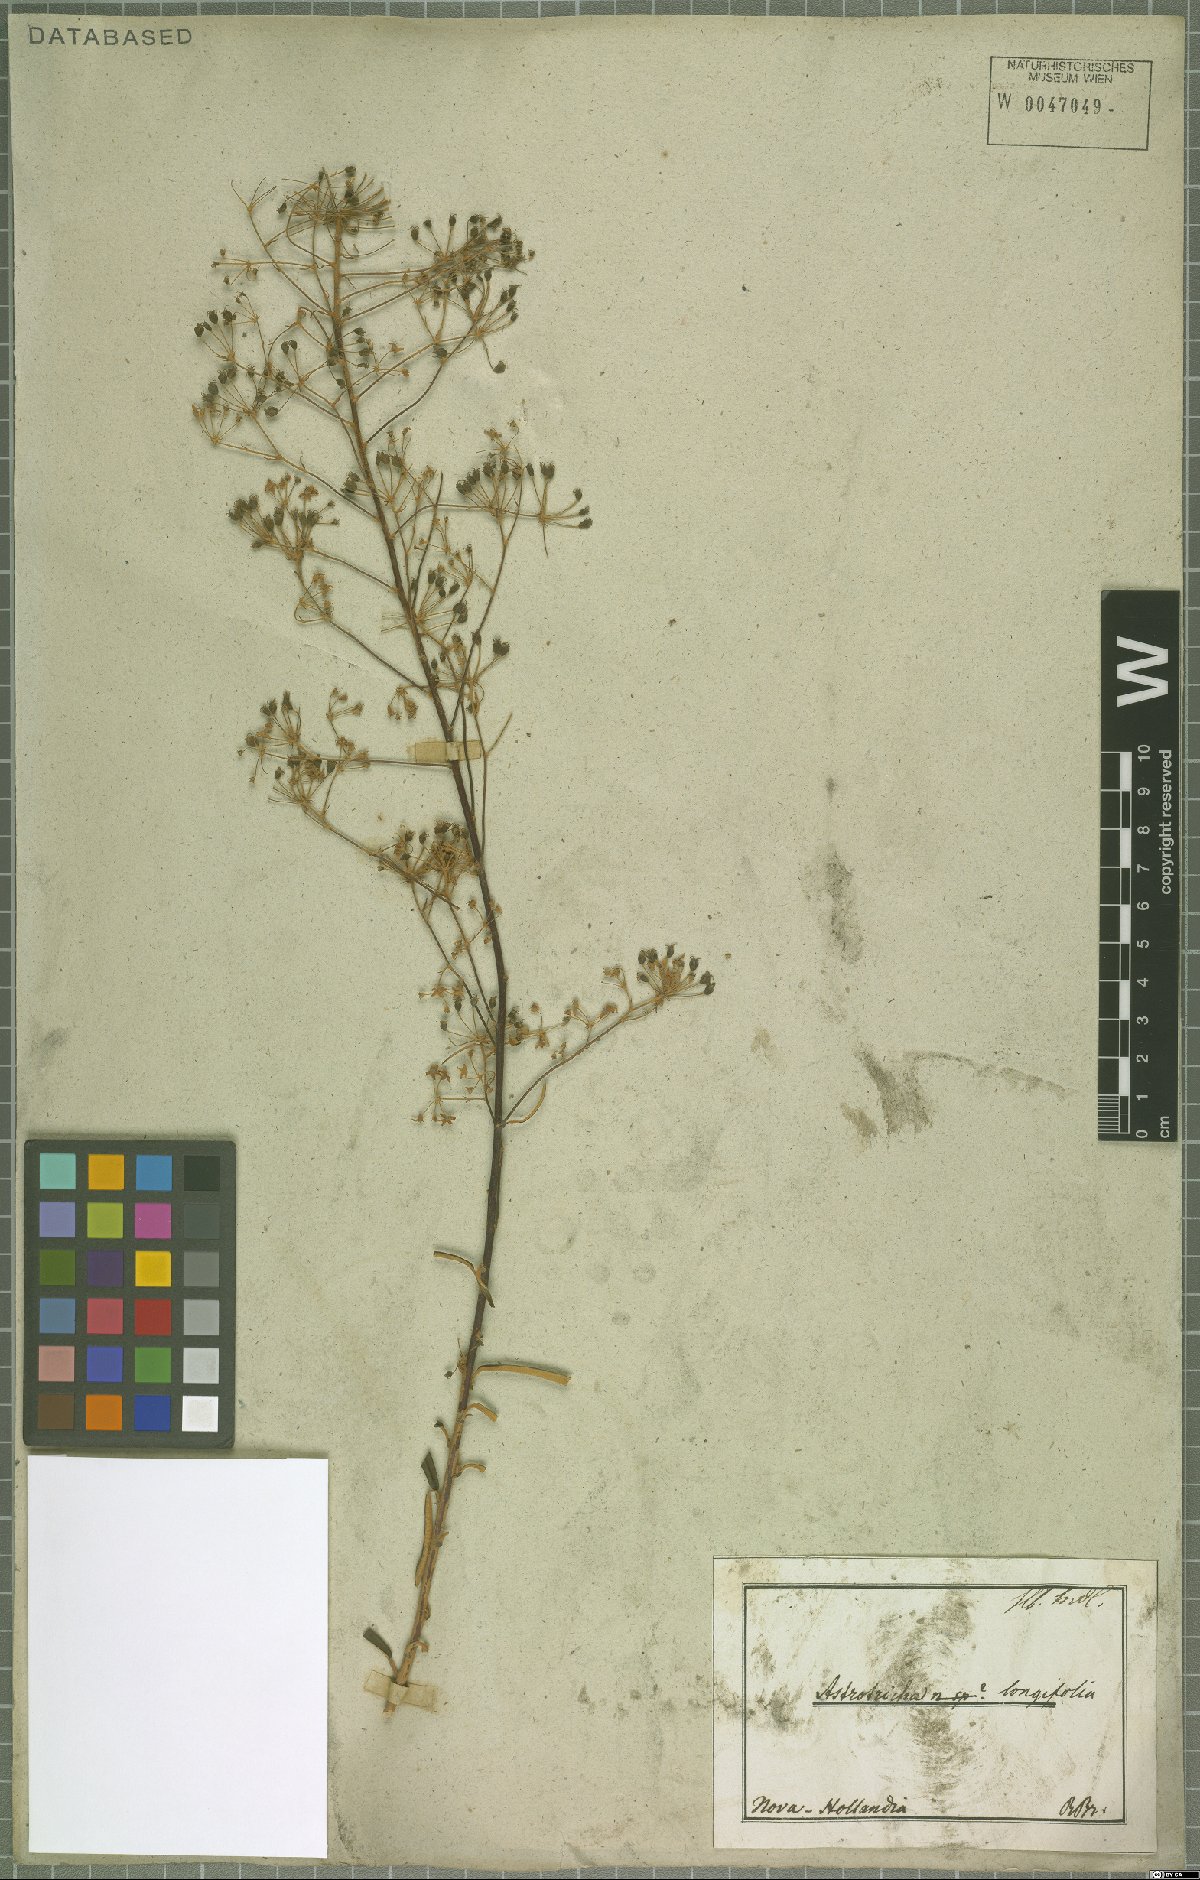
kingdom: Plantae
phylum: Tracheophyta
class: Magnoliopsida
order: Apiales
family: Araliaceae
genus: Astrotricha
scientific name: Astrotricha longifolia
